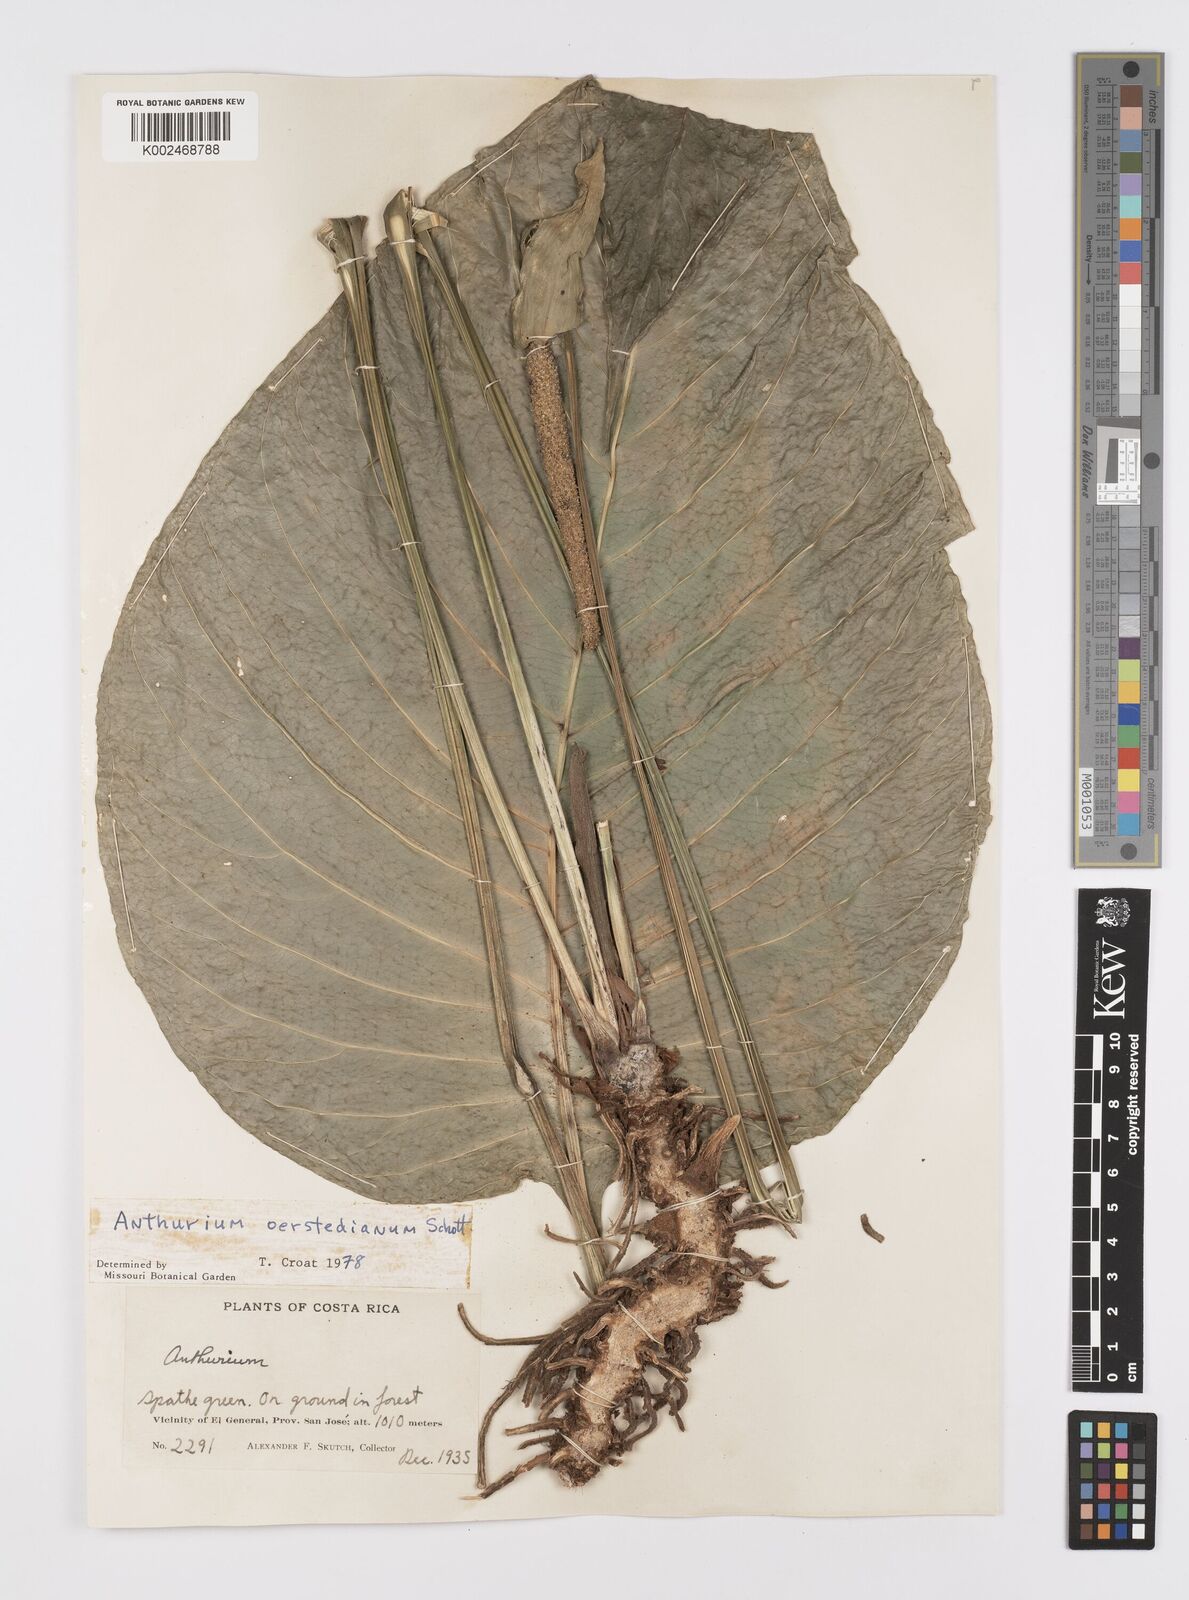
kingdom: Plantae
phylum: Tracheophyta
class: Liliopsida
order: Alismatales
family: Araceae
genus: Anthurium
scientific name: Anthurium oerstedianum
